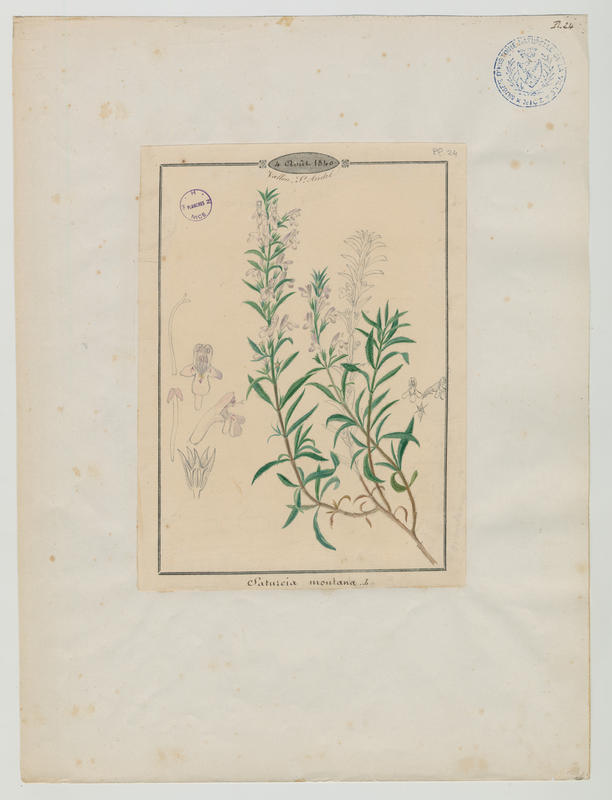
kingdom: Plantae
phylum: Tracheophyta
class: Magnoliopsida
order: Lamiales
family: Lamiaceae
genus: Satureja
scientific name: Satureja montana
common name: Winter savory
